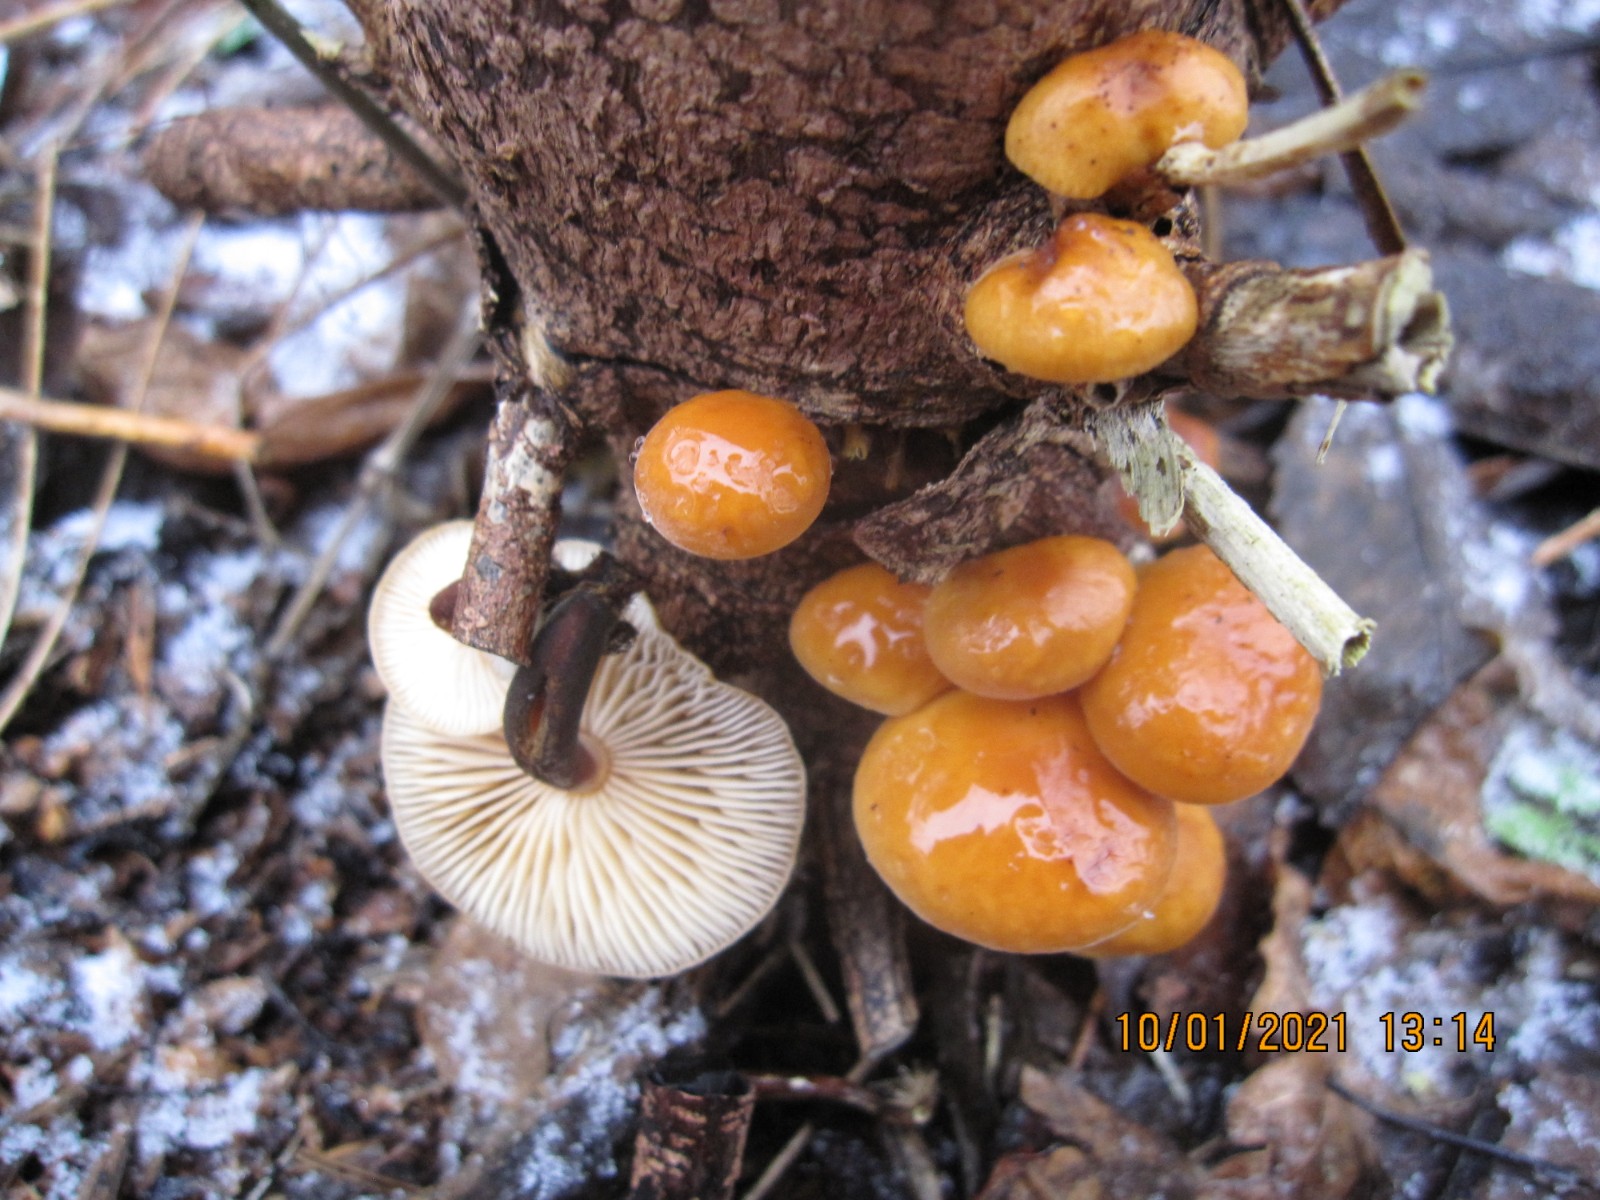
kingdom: Fungi
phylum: Basidiomycota
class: Agaricomycetes
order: Agaricales
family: Physalacriaceae
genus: Flammulina
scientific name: Flammulina velutipes
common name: gul fløjlsfod
